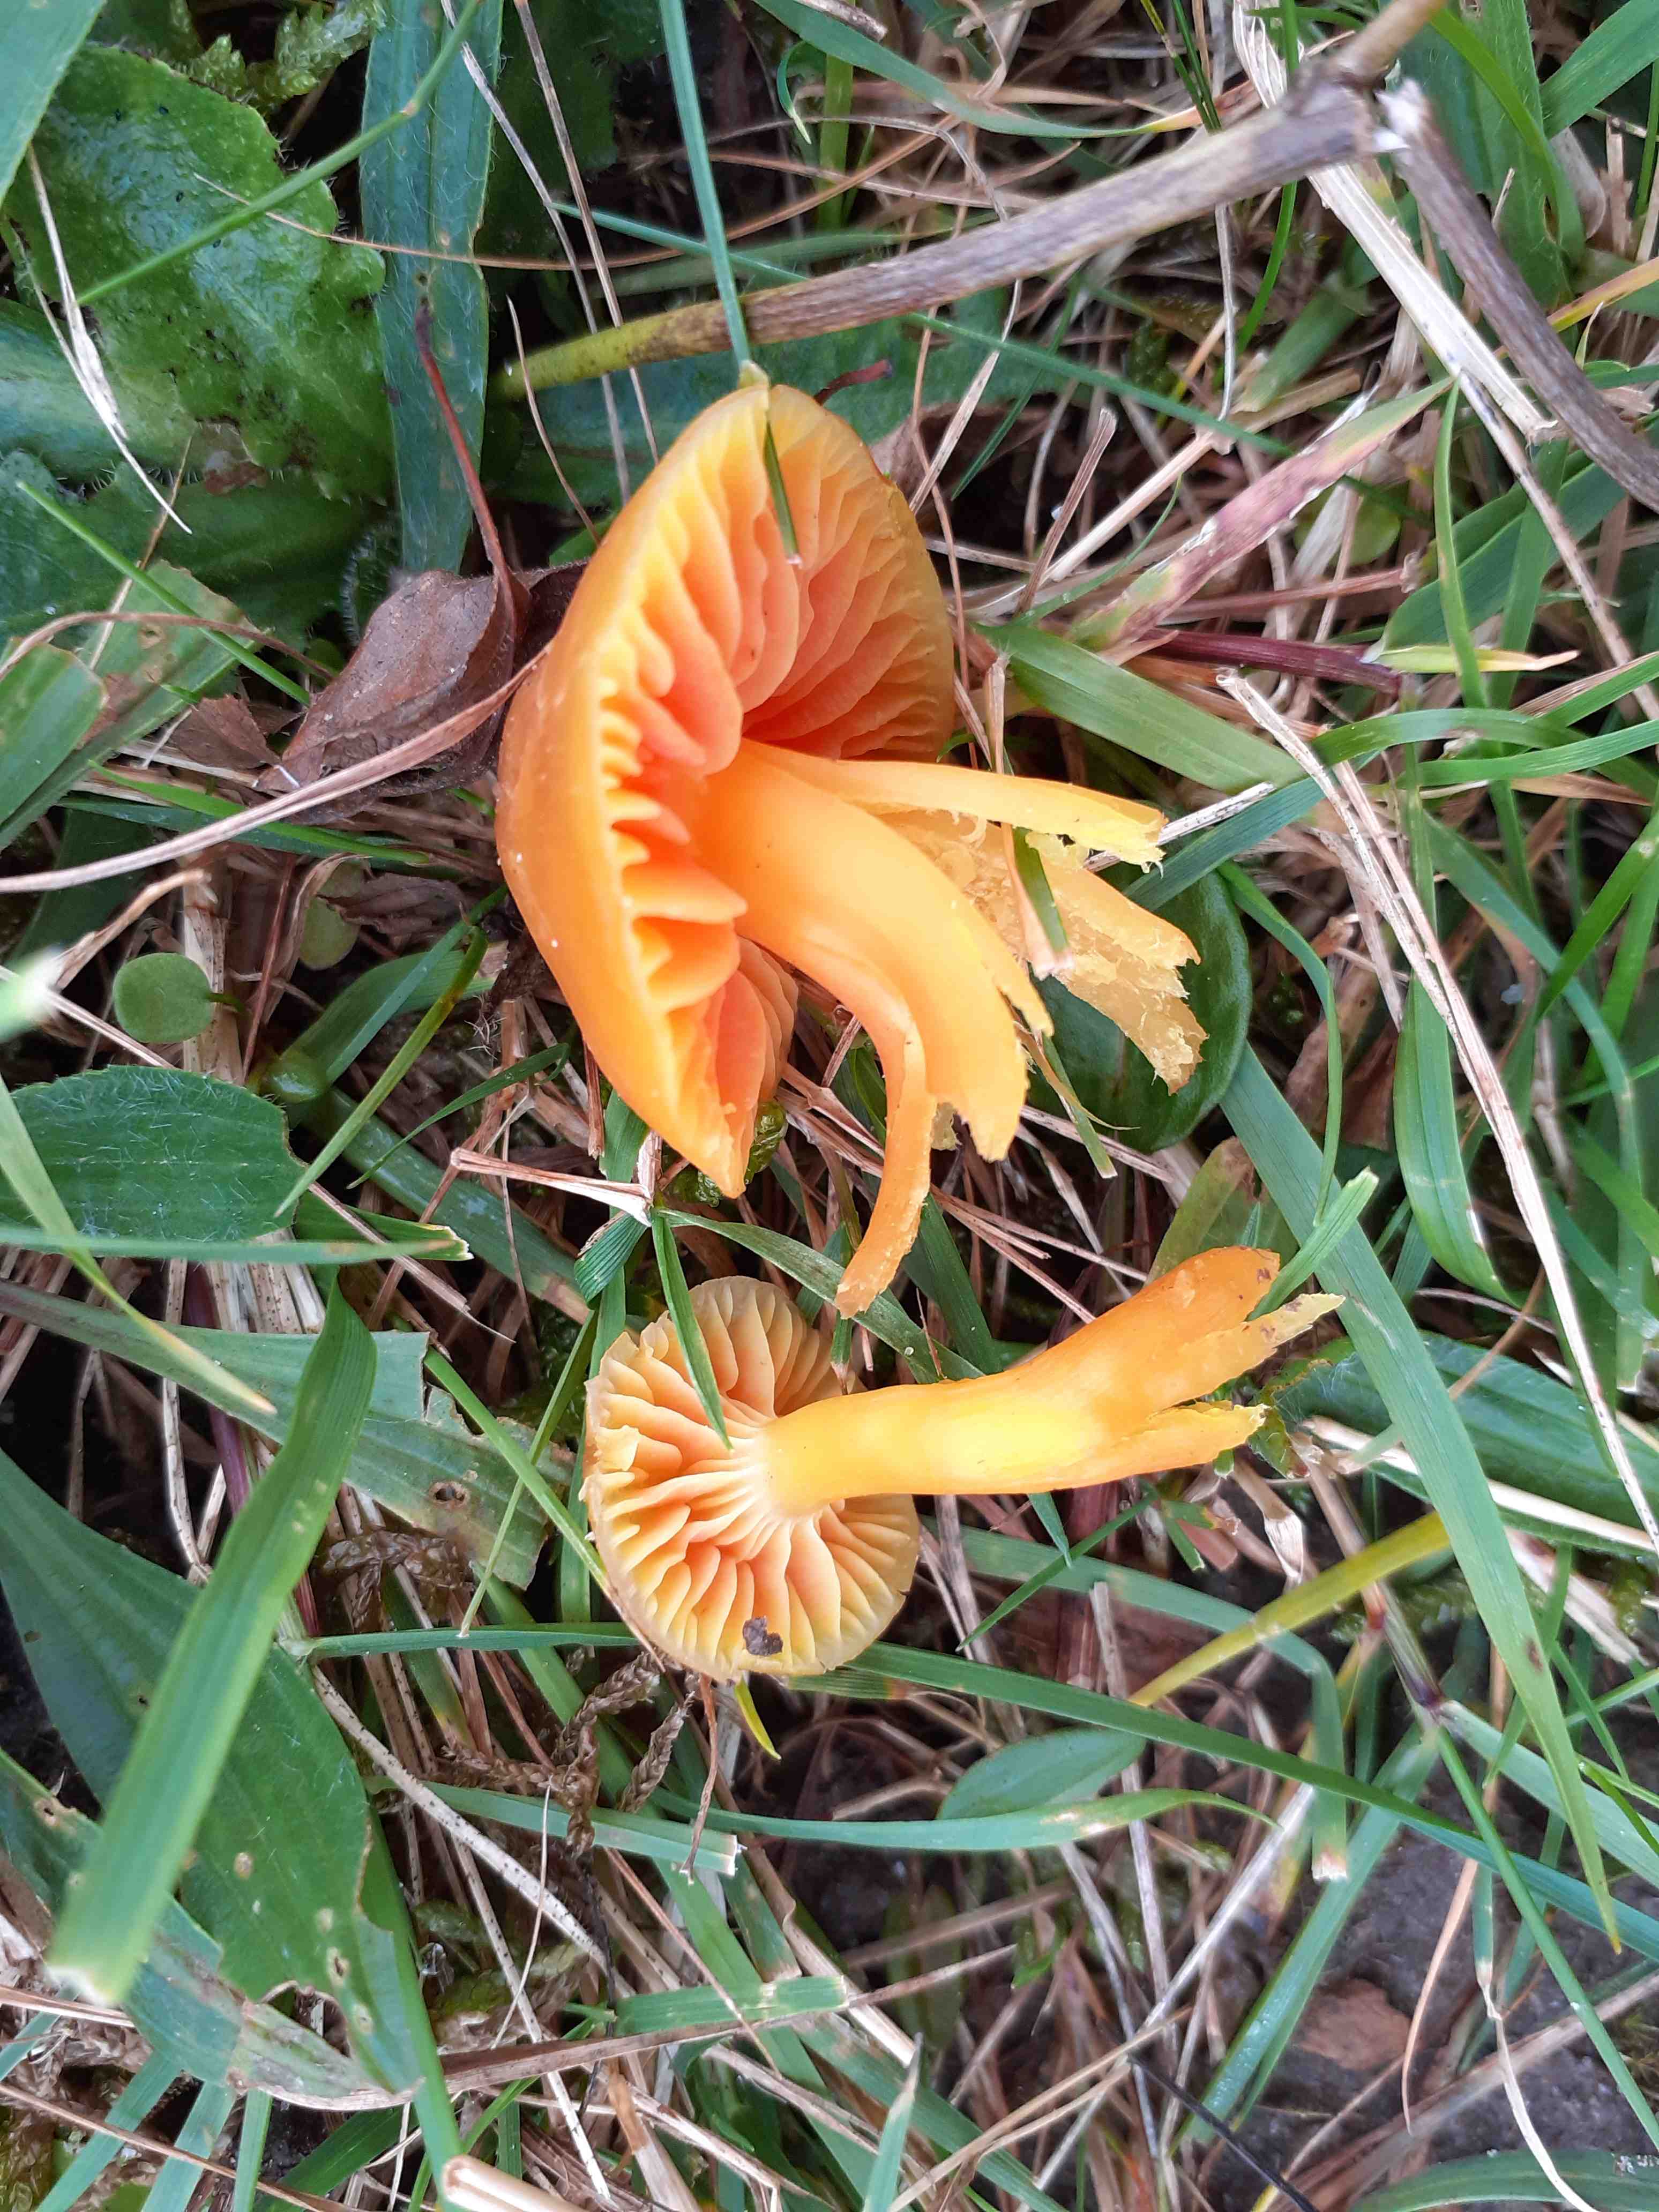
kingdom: Fungi
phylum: Basidiomycota
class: Agaricomycetes
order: Agaricales
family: Hygrophoraceae
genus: Hygrocybe
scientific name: Hygrocybe quieta
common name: tæge-vokshat
